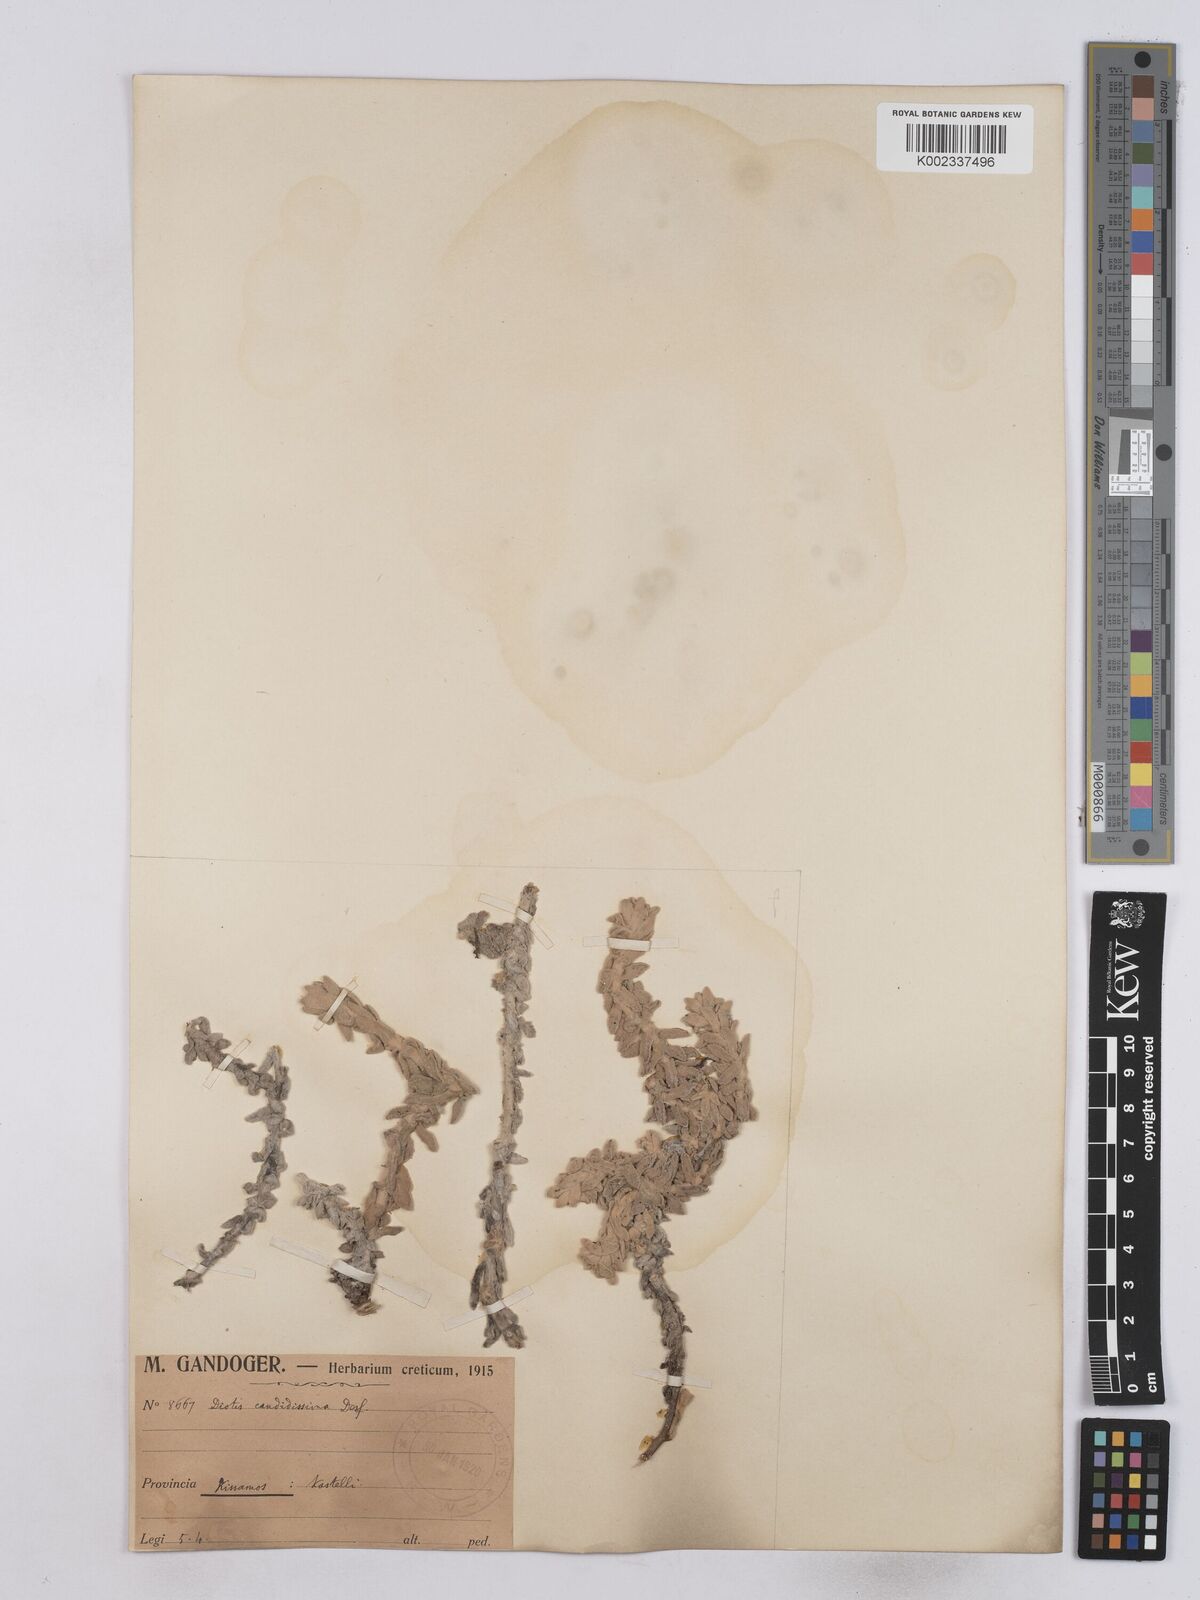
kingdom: Plantae
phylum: Tracheophyta
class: Magnoliopsida
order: Asterales
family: Asteraceae
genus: Achillea
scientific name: Achillea maritima
